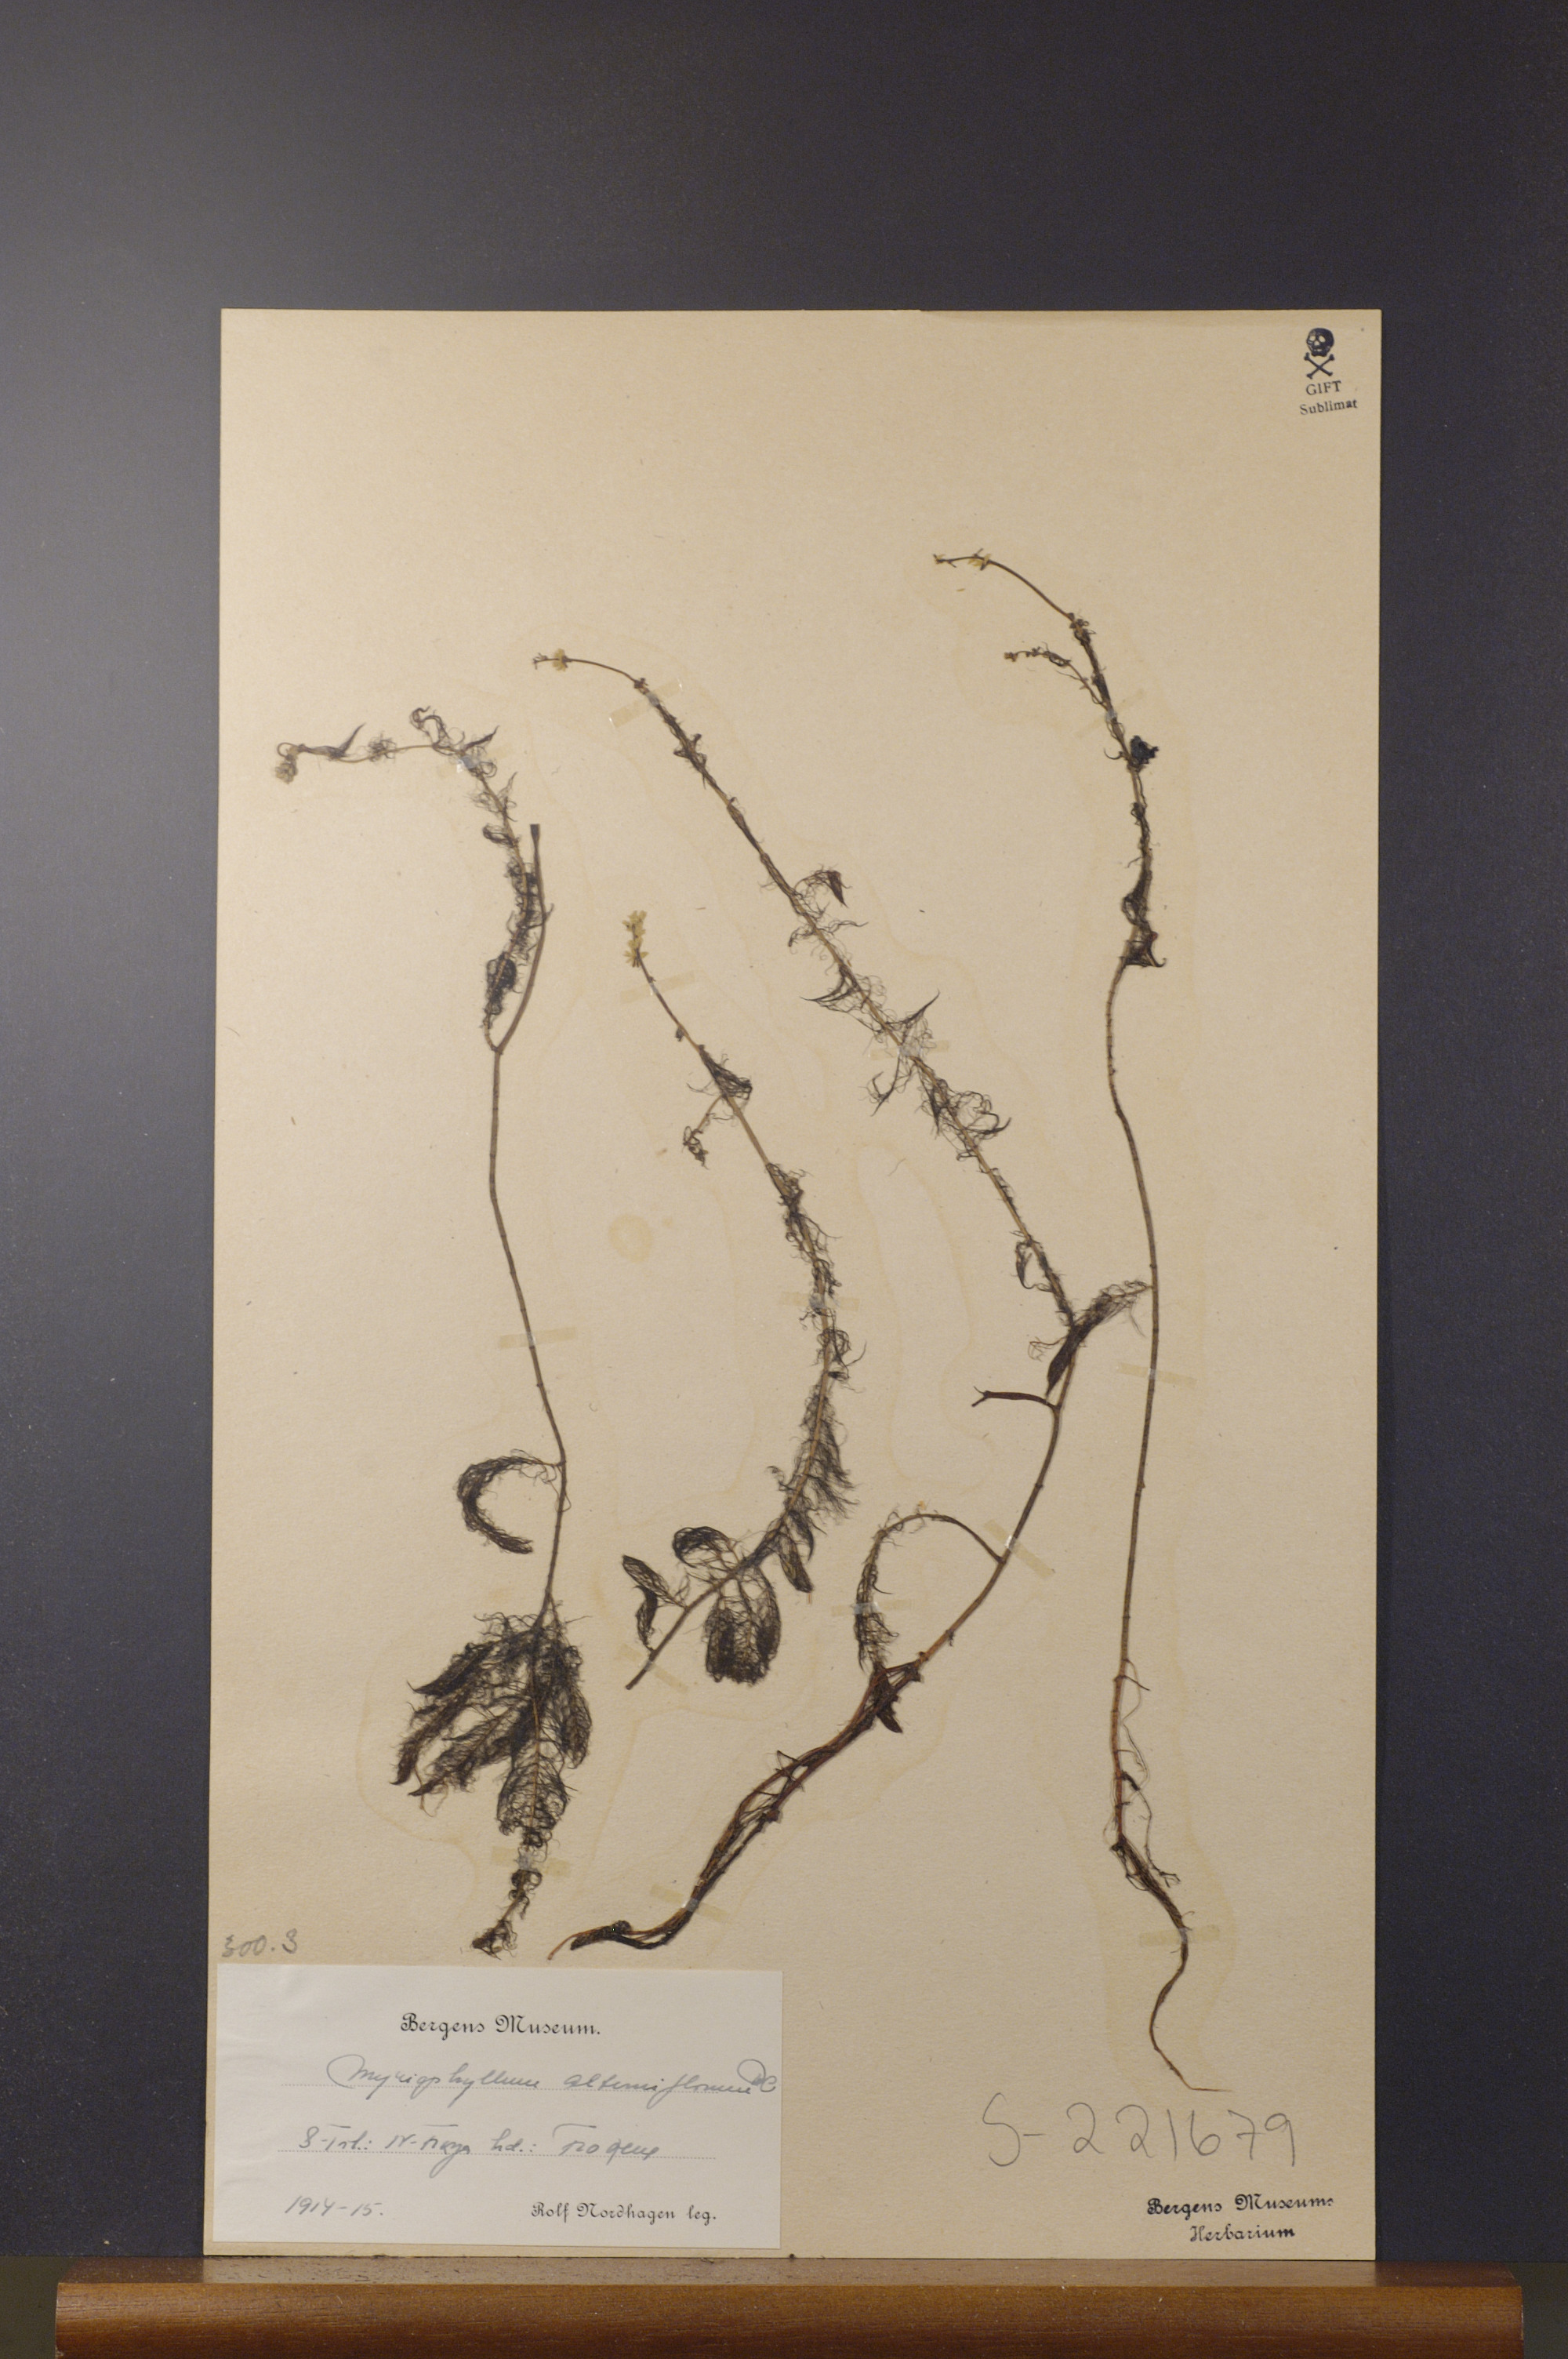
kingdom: Plantae
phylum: Tracheophyta
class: Magnoliopsida
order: Saxifragales
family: Haloragaceae
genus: Myriophyllum
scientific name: Myriophyllum alterniflorum
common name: Alternate water-milfoil
